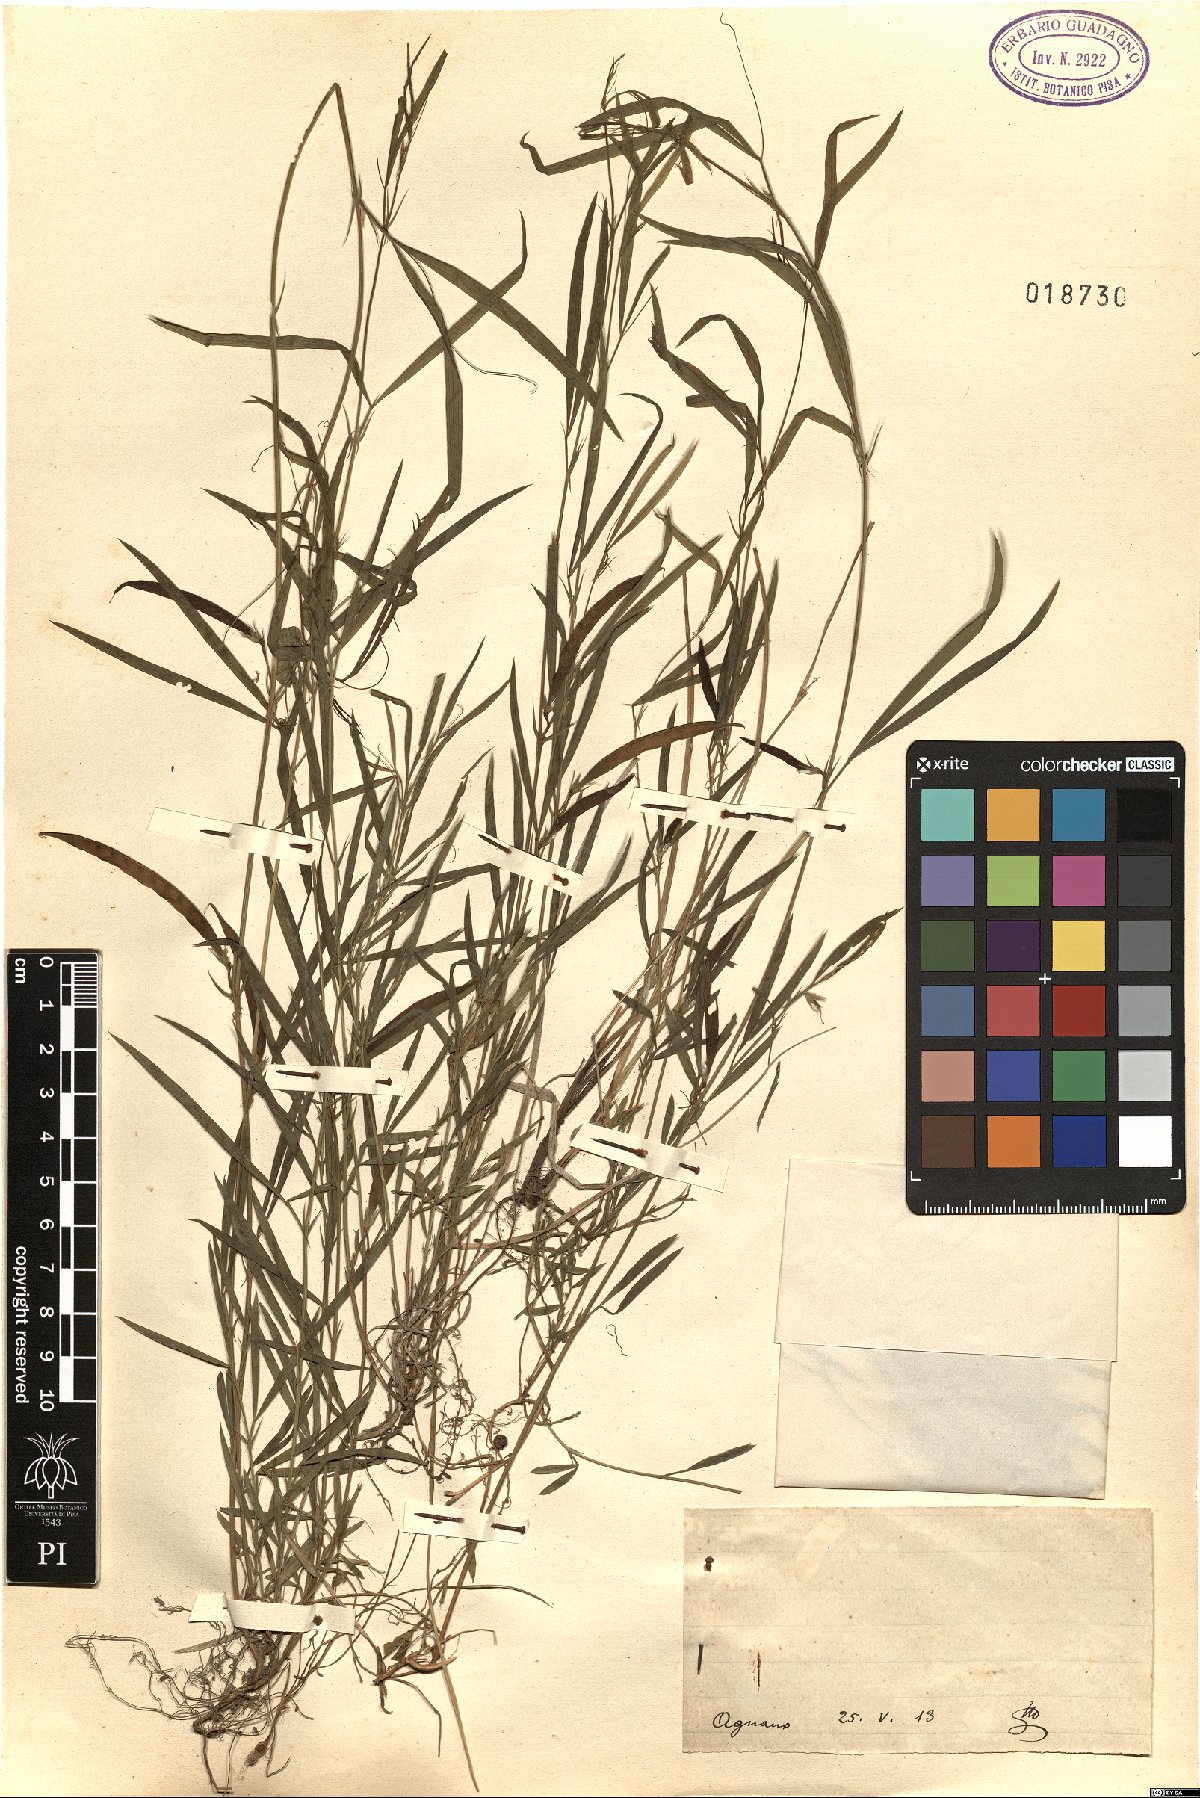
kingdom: Plantae
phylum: Tracheophyta
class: Magnoliopsida
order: Fabales
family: Fabaceae
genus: Lathyrus
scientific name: Lathyrus
